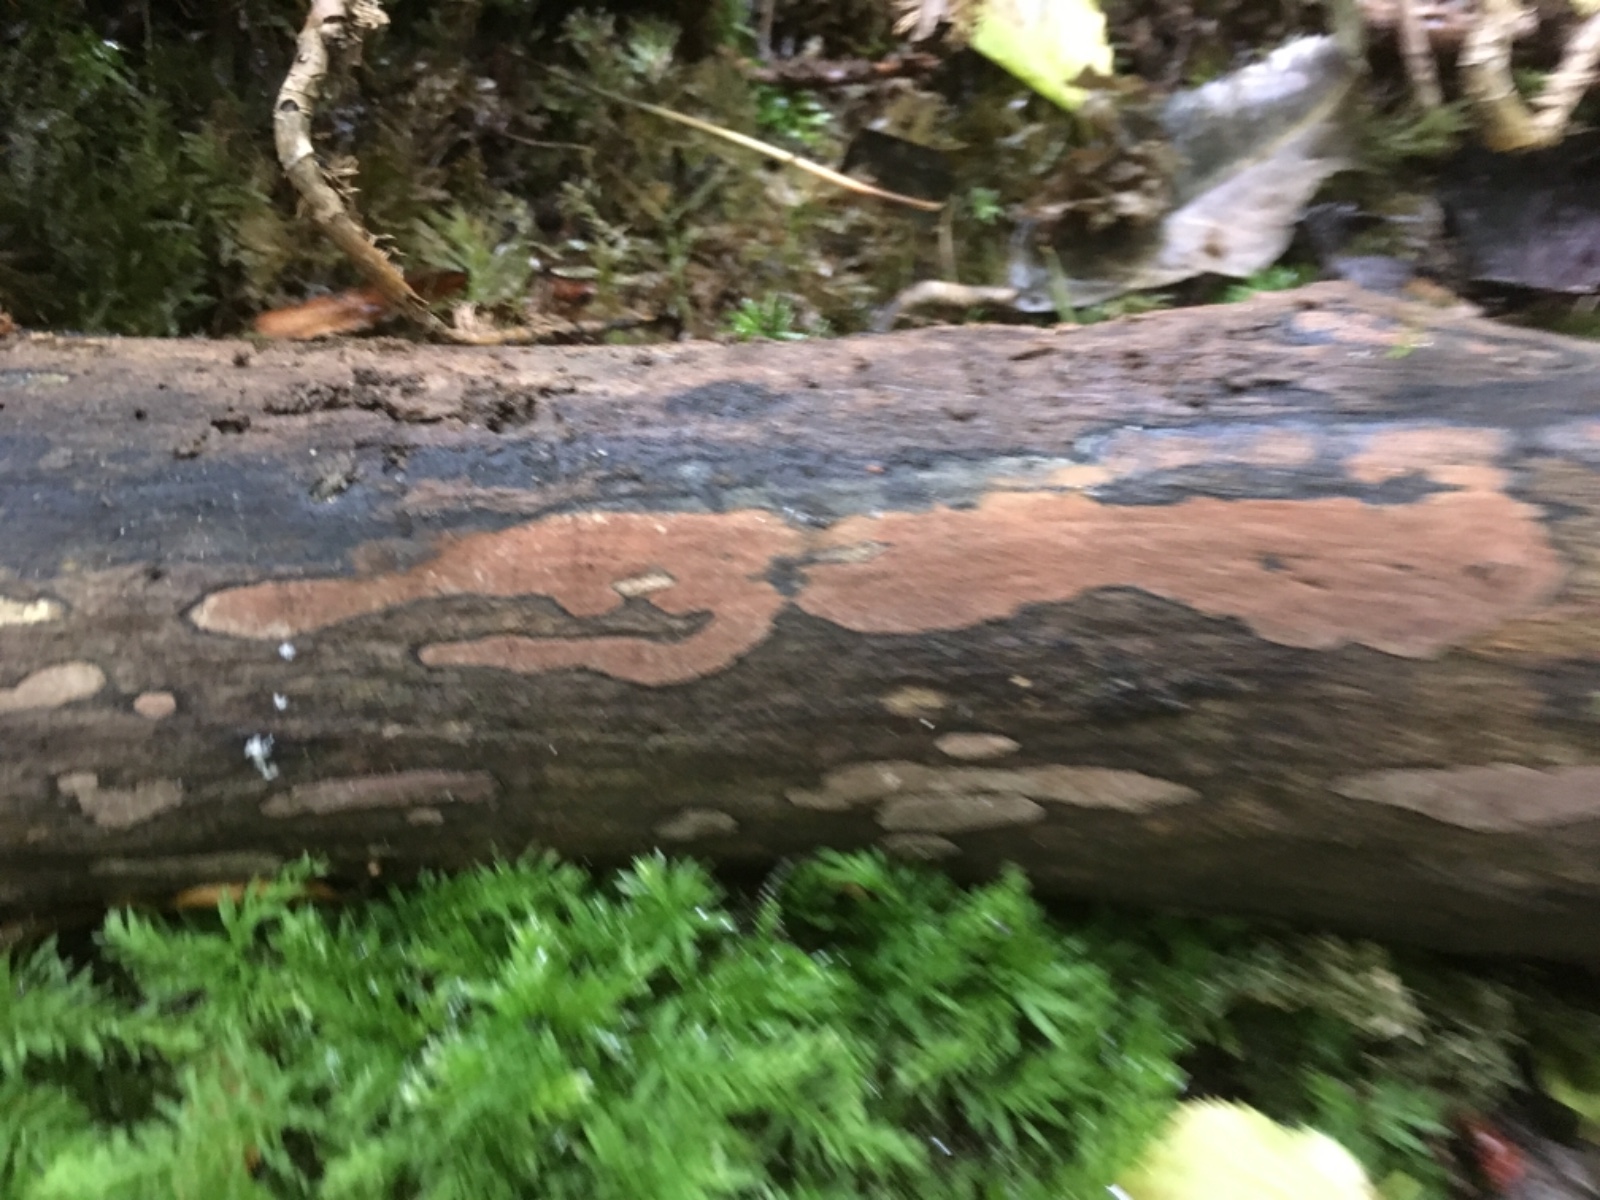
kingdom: Fungi
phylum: Ascomycota
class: Sordariomycetes
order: Xylariales
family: Hypoxylaceae
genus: Hypoxylon
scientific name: Hypoxylon petriniae
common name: nedsænket kulbær
